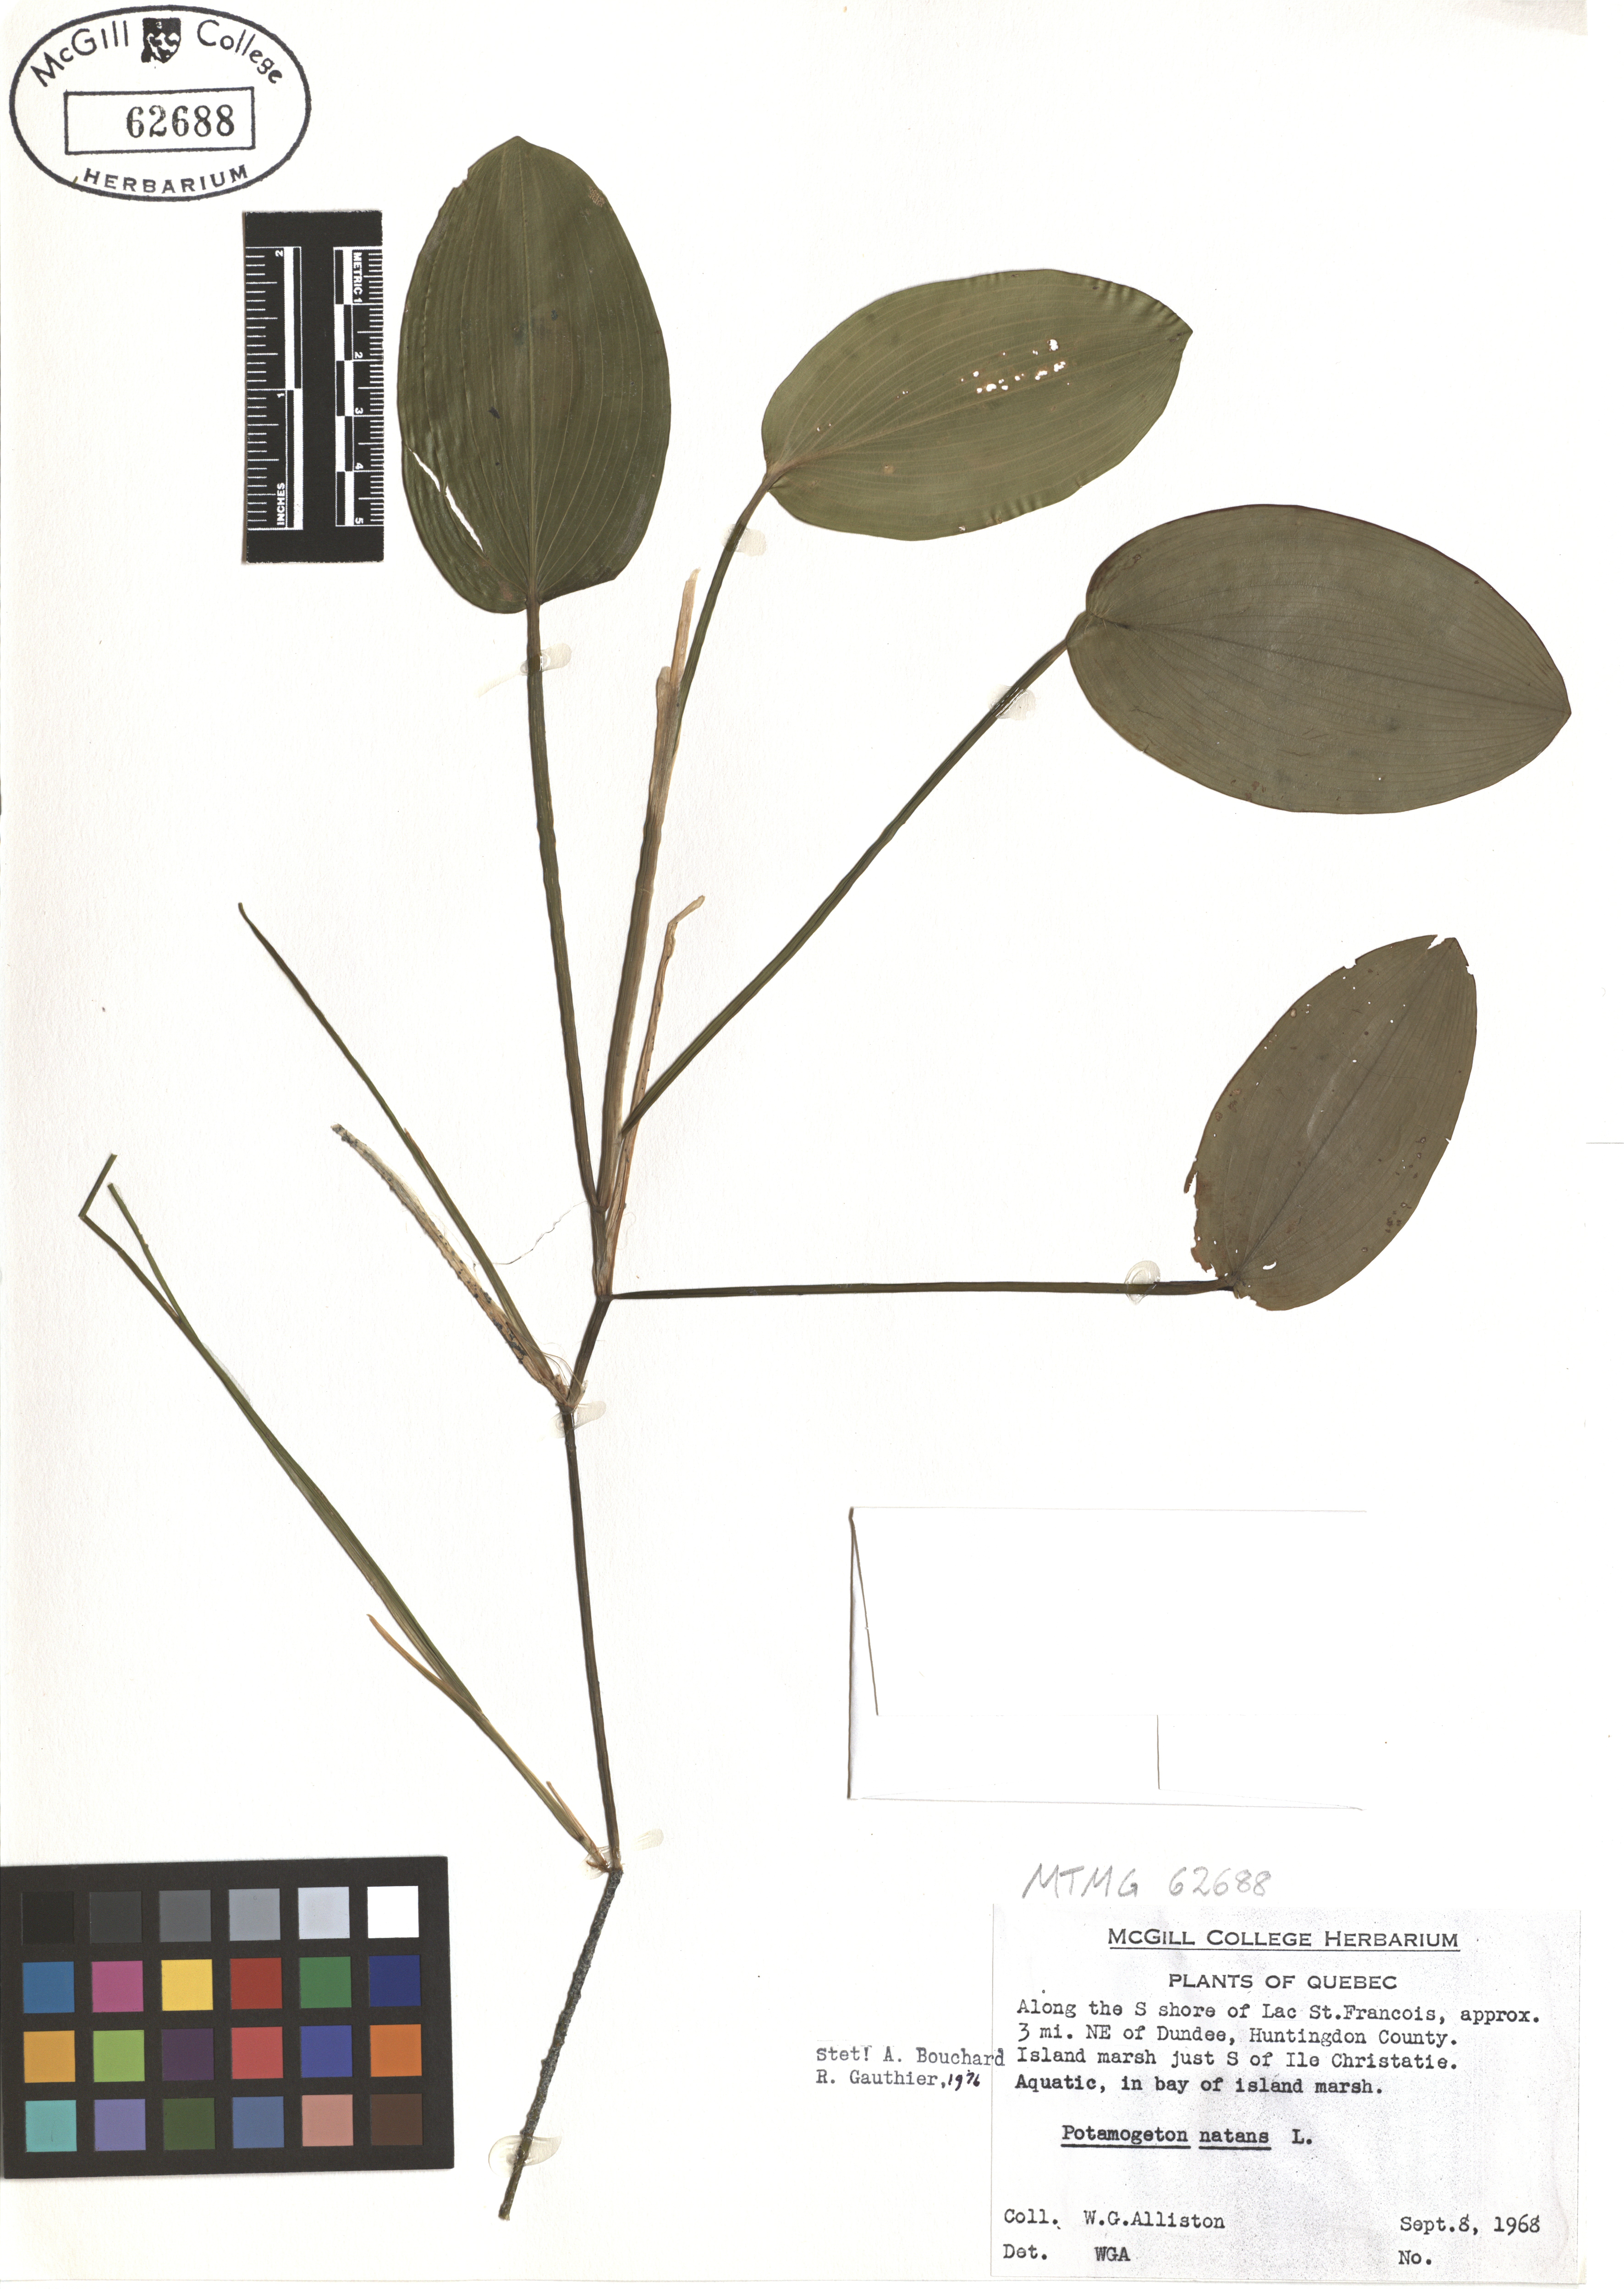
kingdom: Plantae
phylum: Tracheophyta
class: Liliopsida
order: Alismatales
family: Potamogetonaceae
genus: Potamogeton
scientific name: Potamogeton natans
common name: Broad-leaved pondweed
